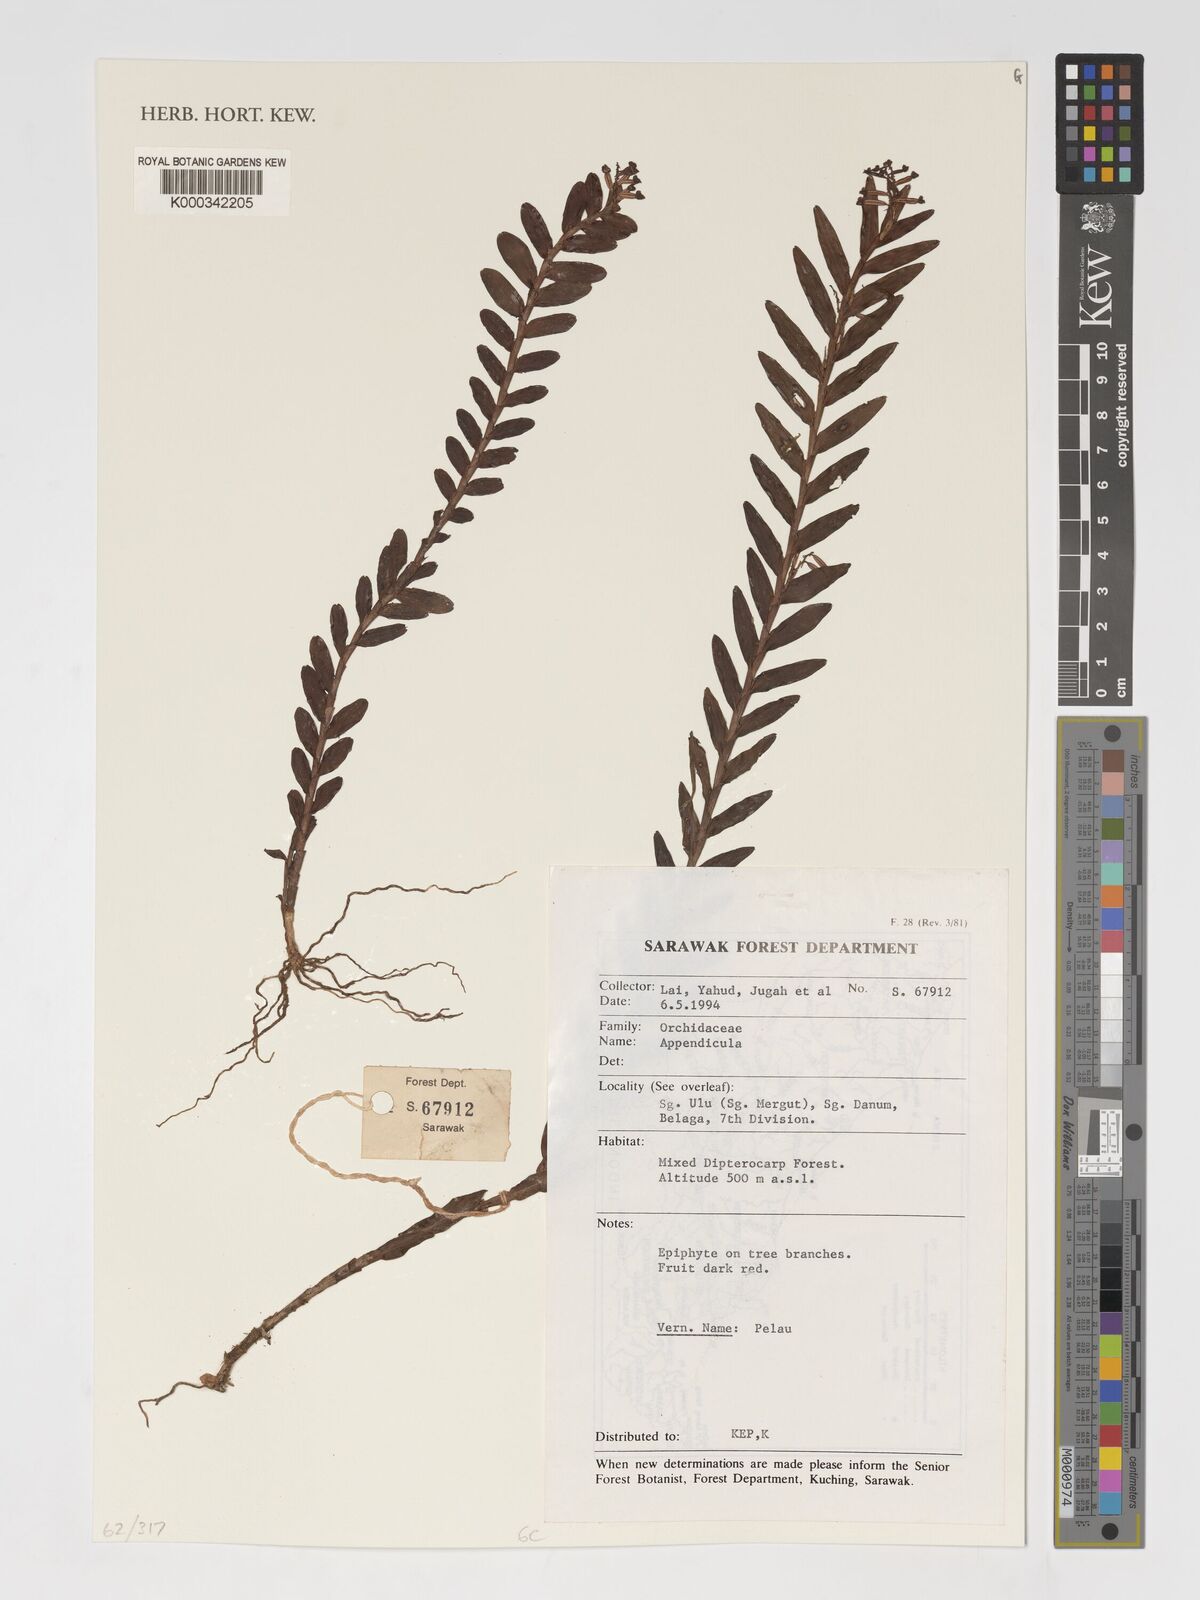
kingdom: Plantae
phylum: Tracheophyta
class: Liliopsida
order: Asparagales
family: Orchidaceae
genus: Appendicula
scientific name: Appendicula
